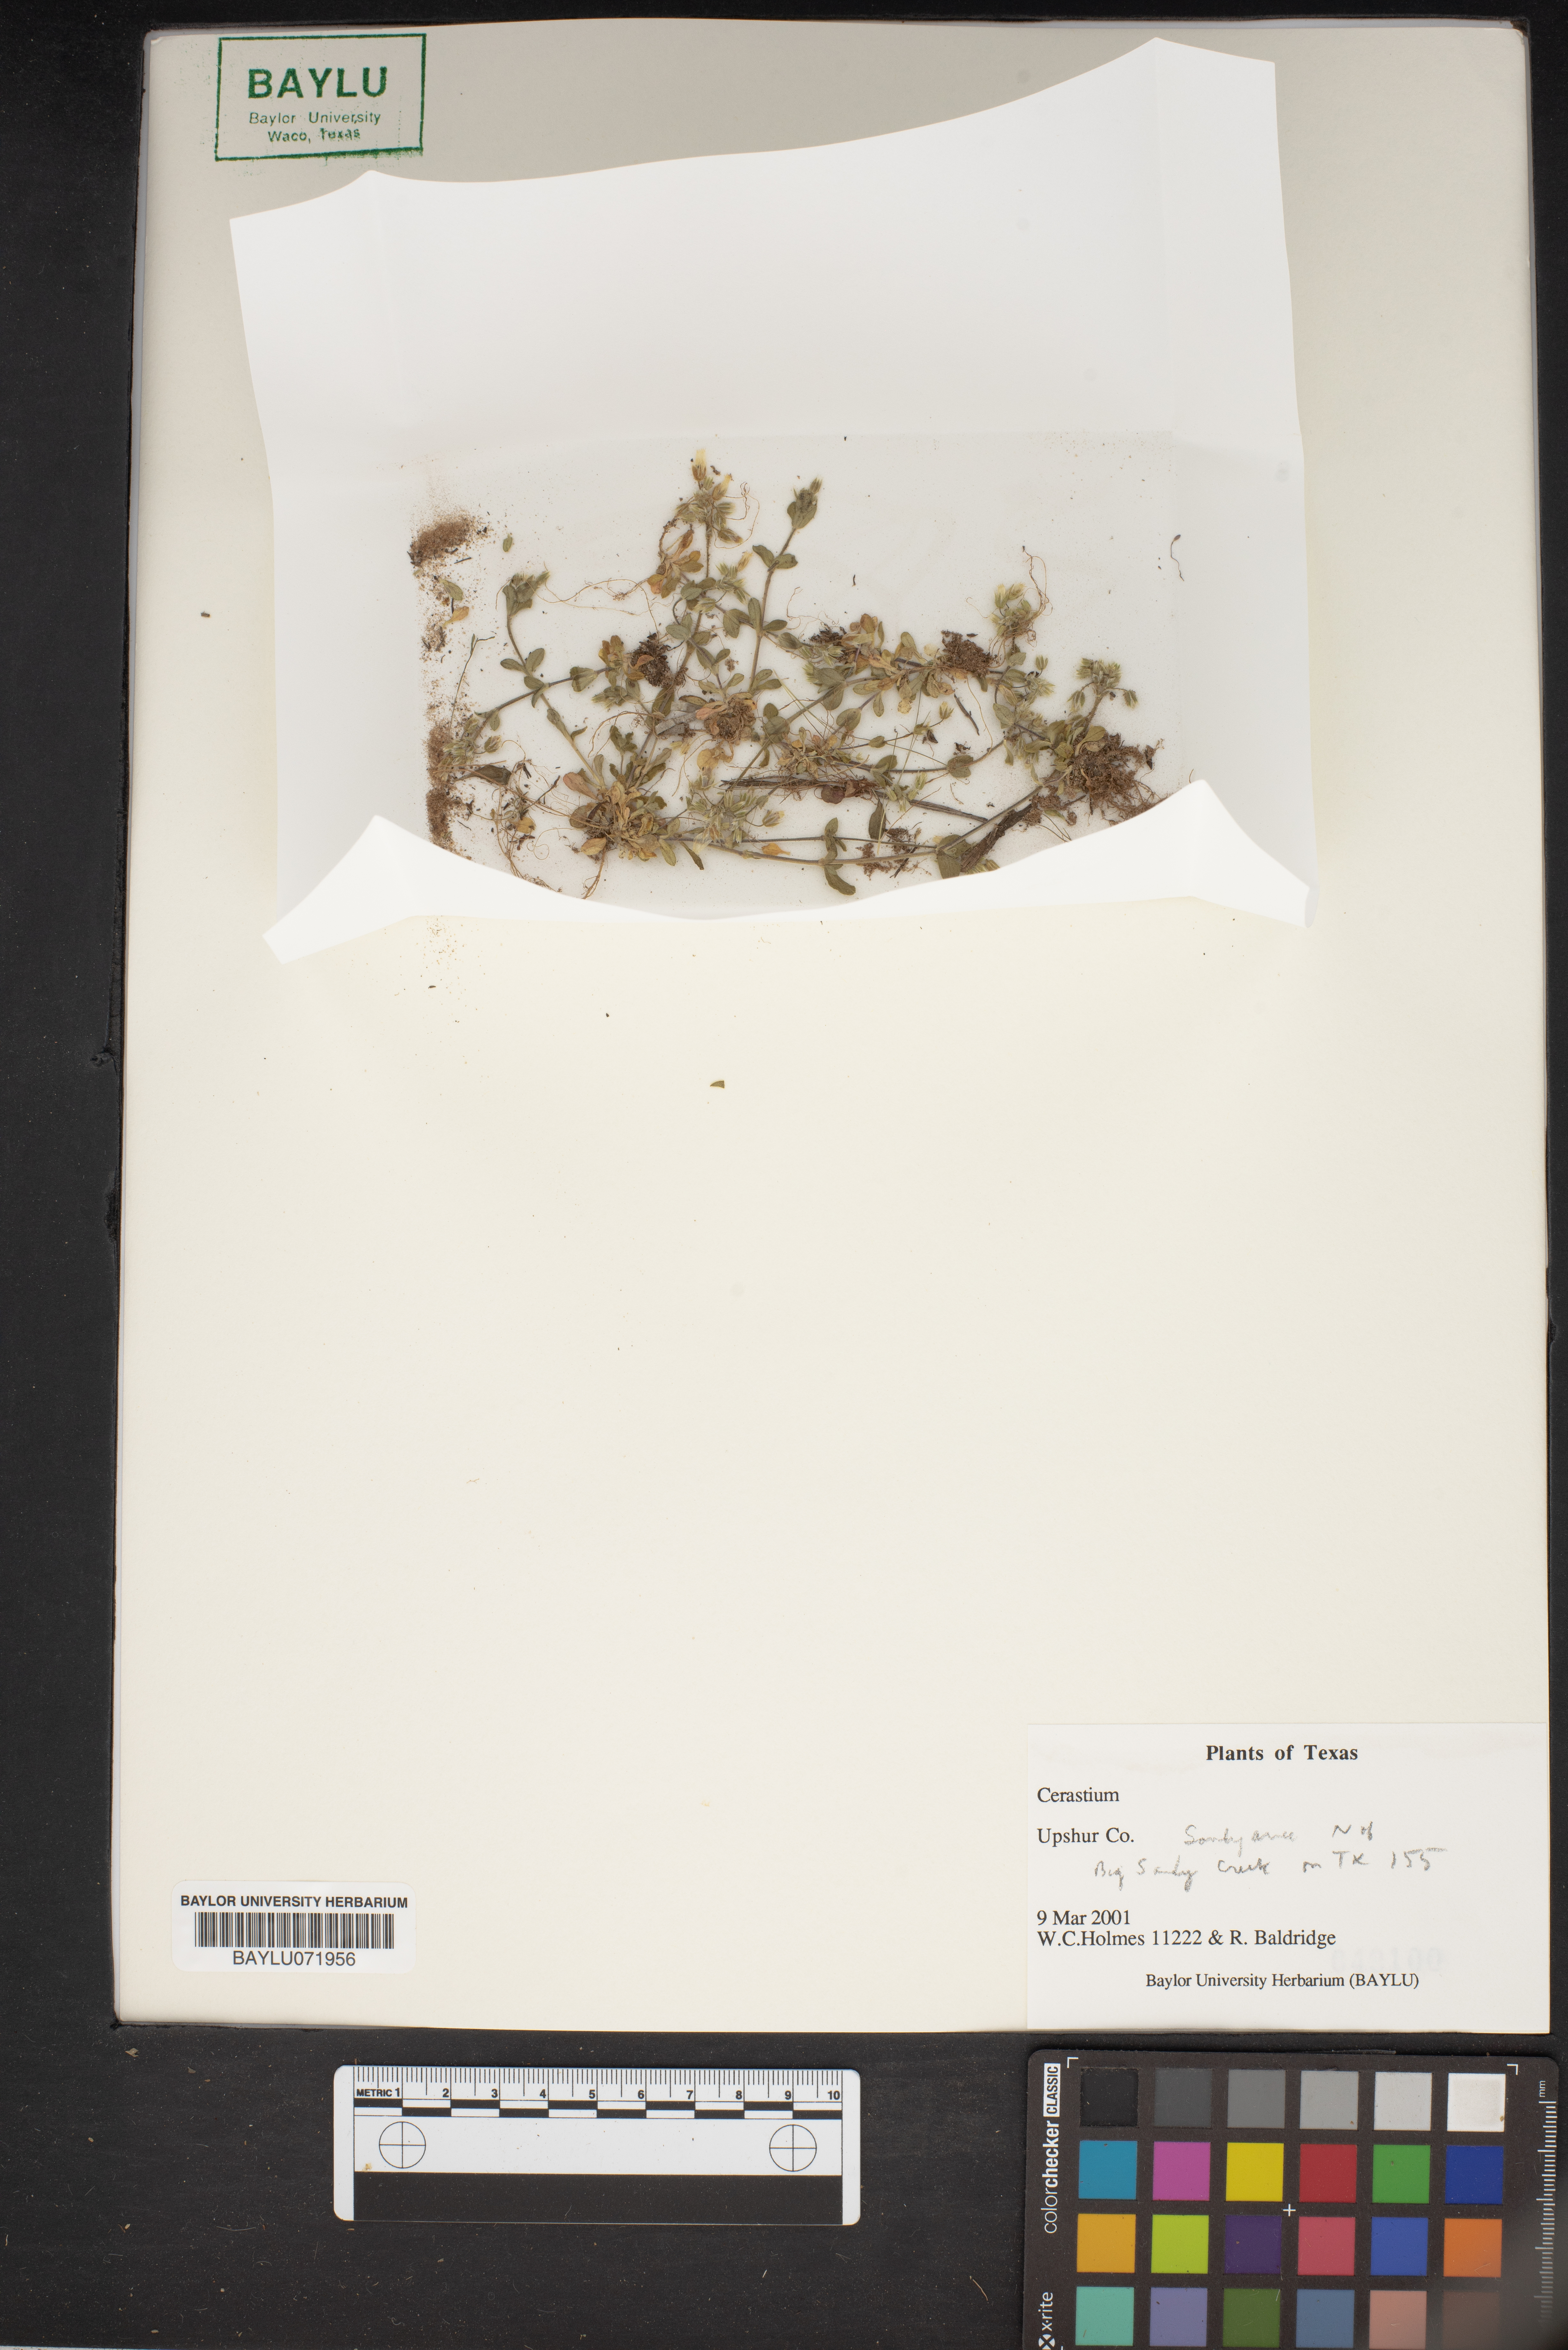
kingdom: Plantae
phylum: Tracheophyta
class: Magnoliopsida
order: Caryophyllales
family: Caryophyllaceae
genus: Cerastium
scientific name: Cerastium
